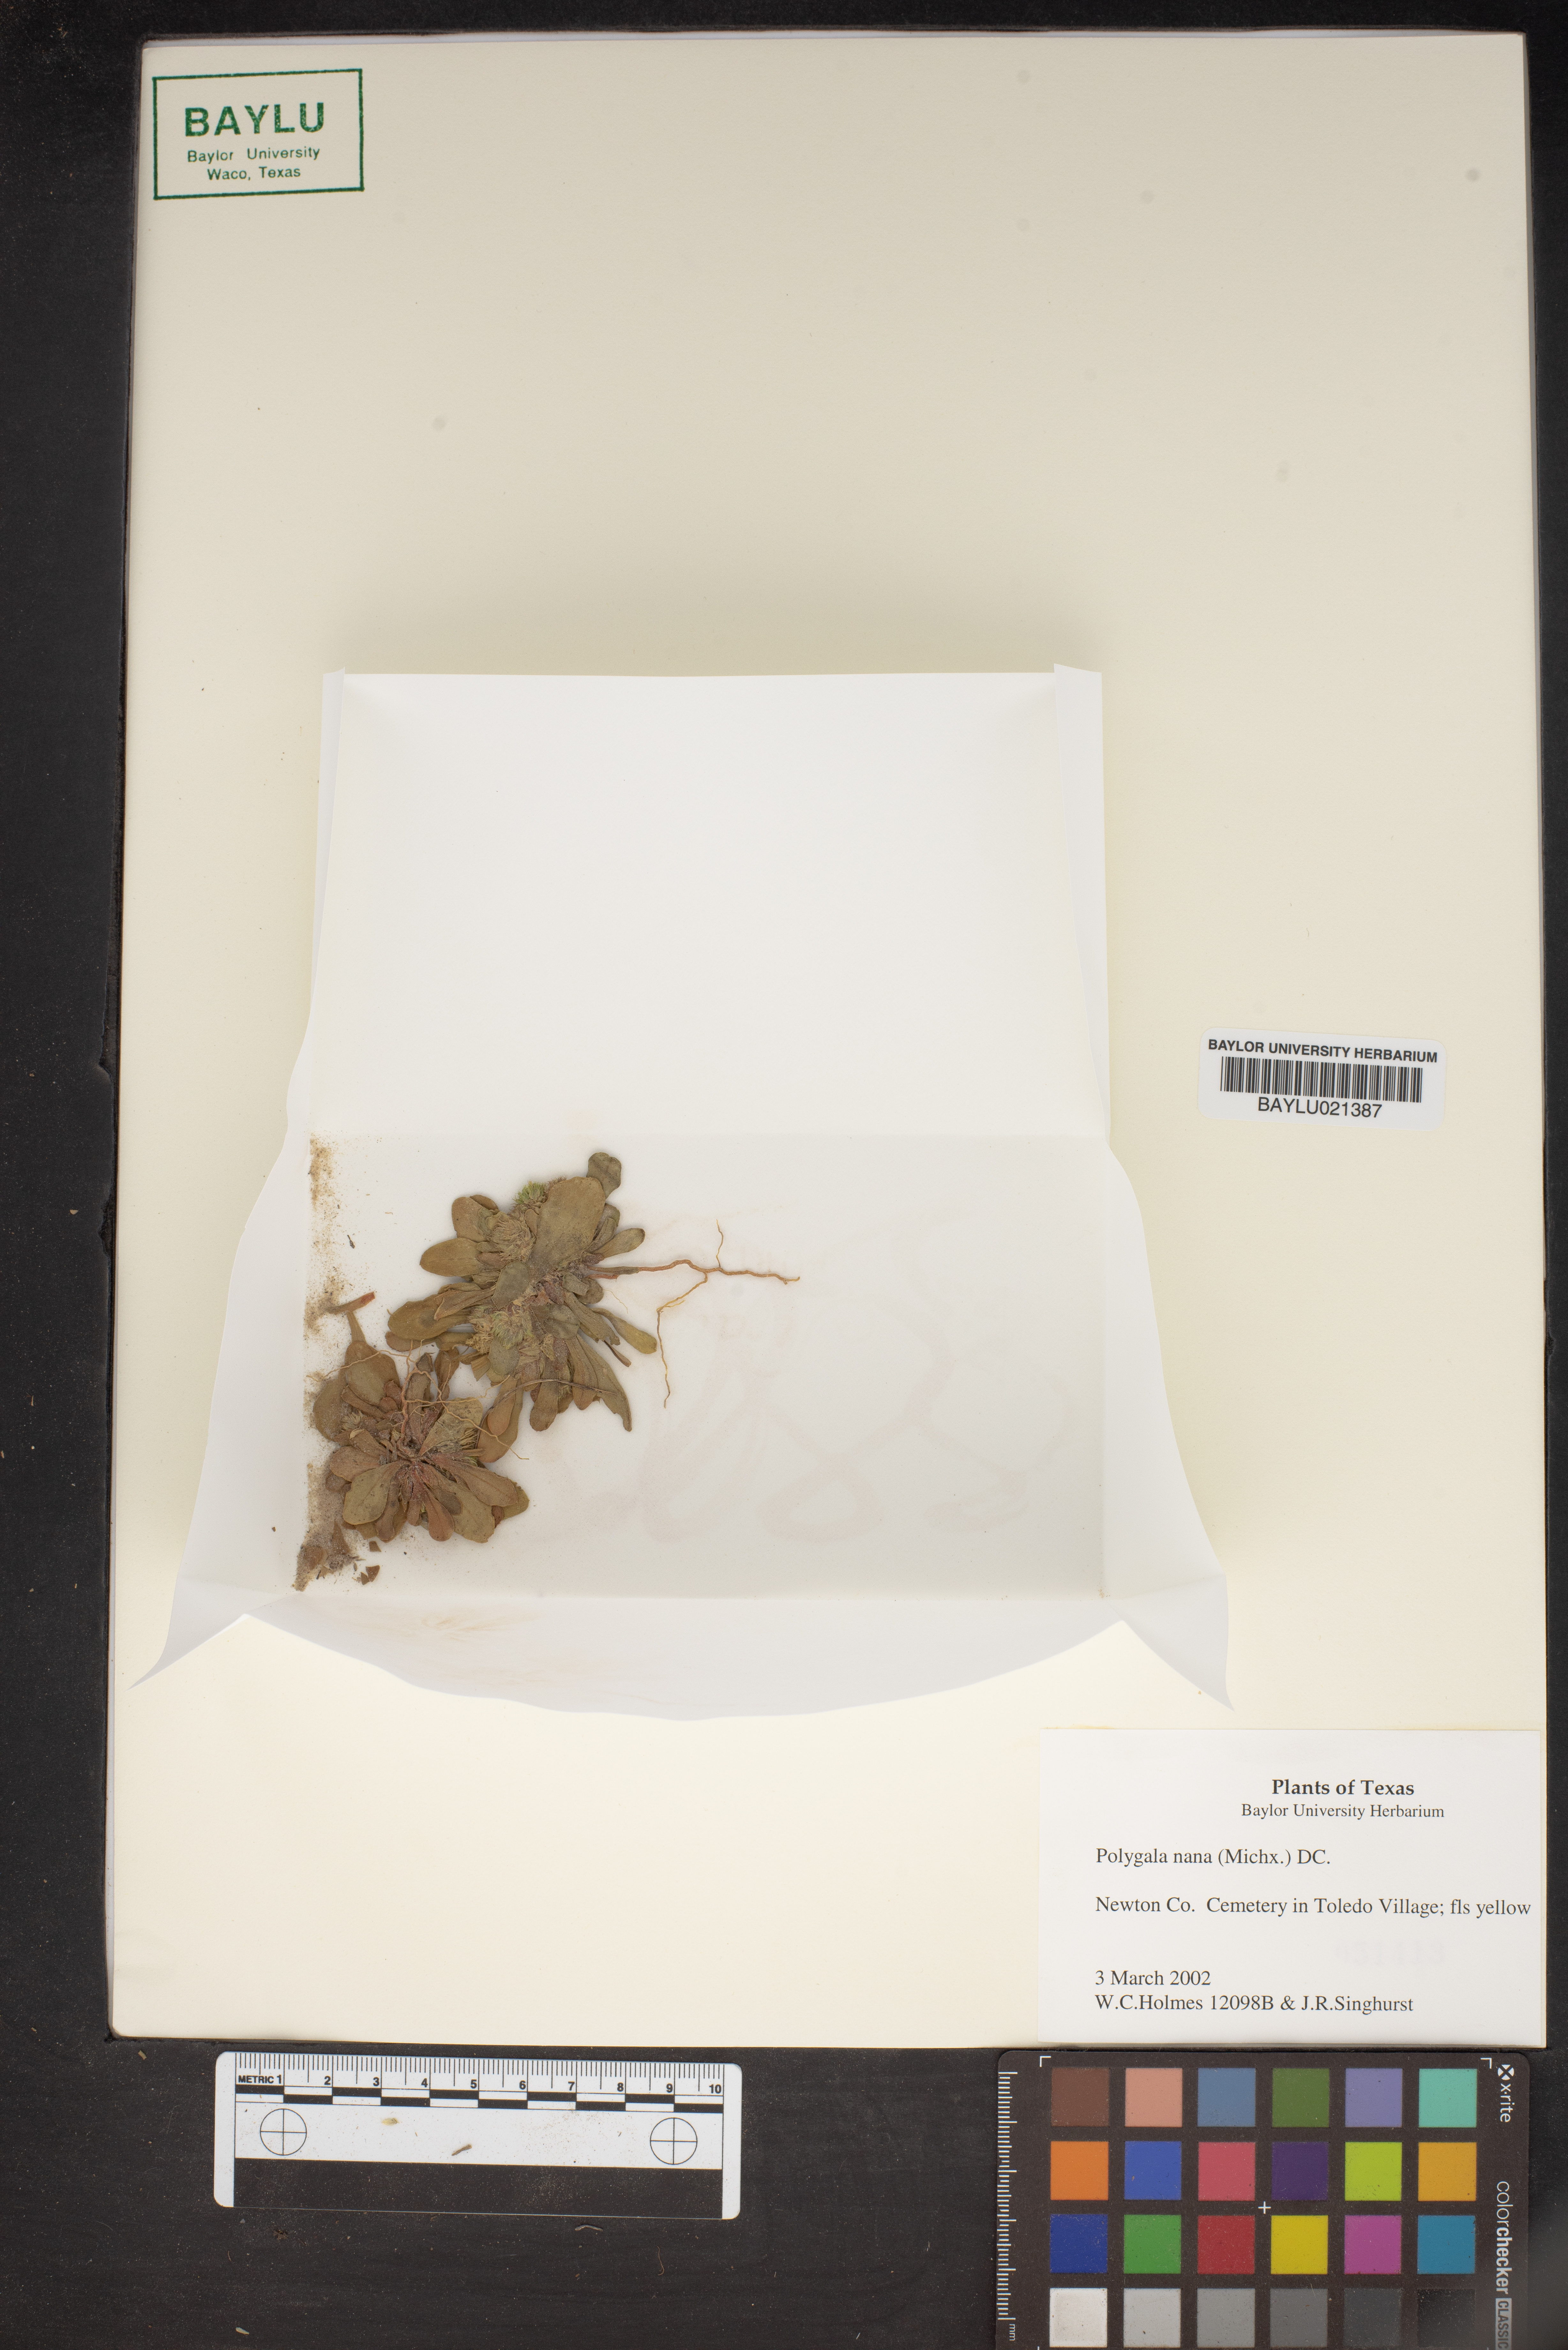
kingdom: Plantae
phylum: Tracheophyta
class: Magnoliopsida
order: Fabales
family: Polygalaceae
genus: Polygala
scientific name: Polygala nana
